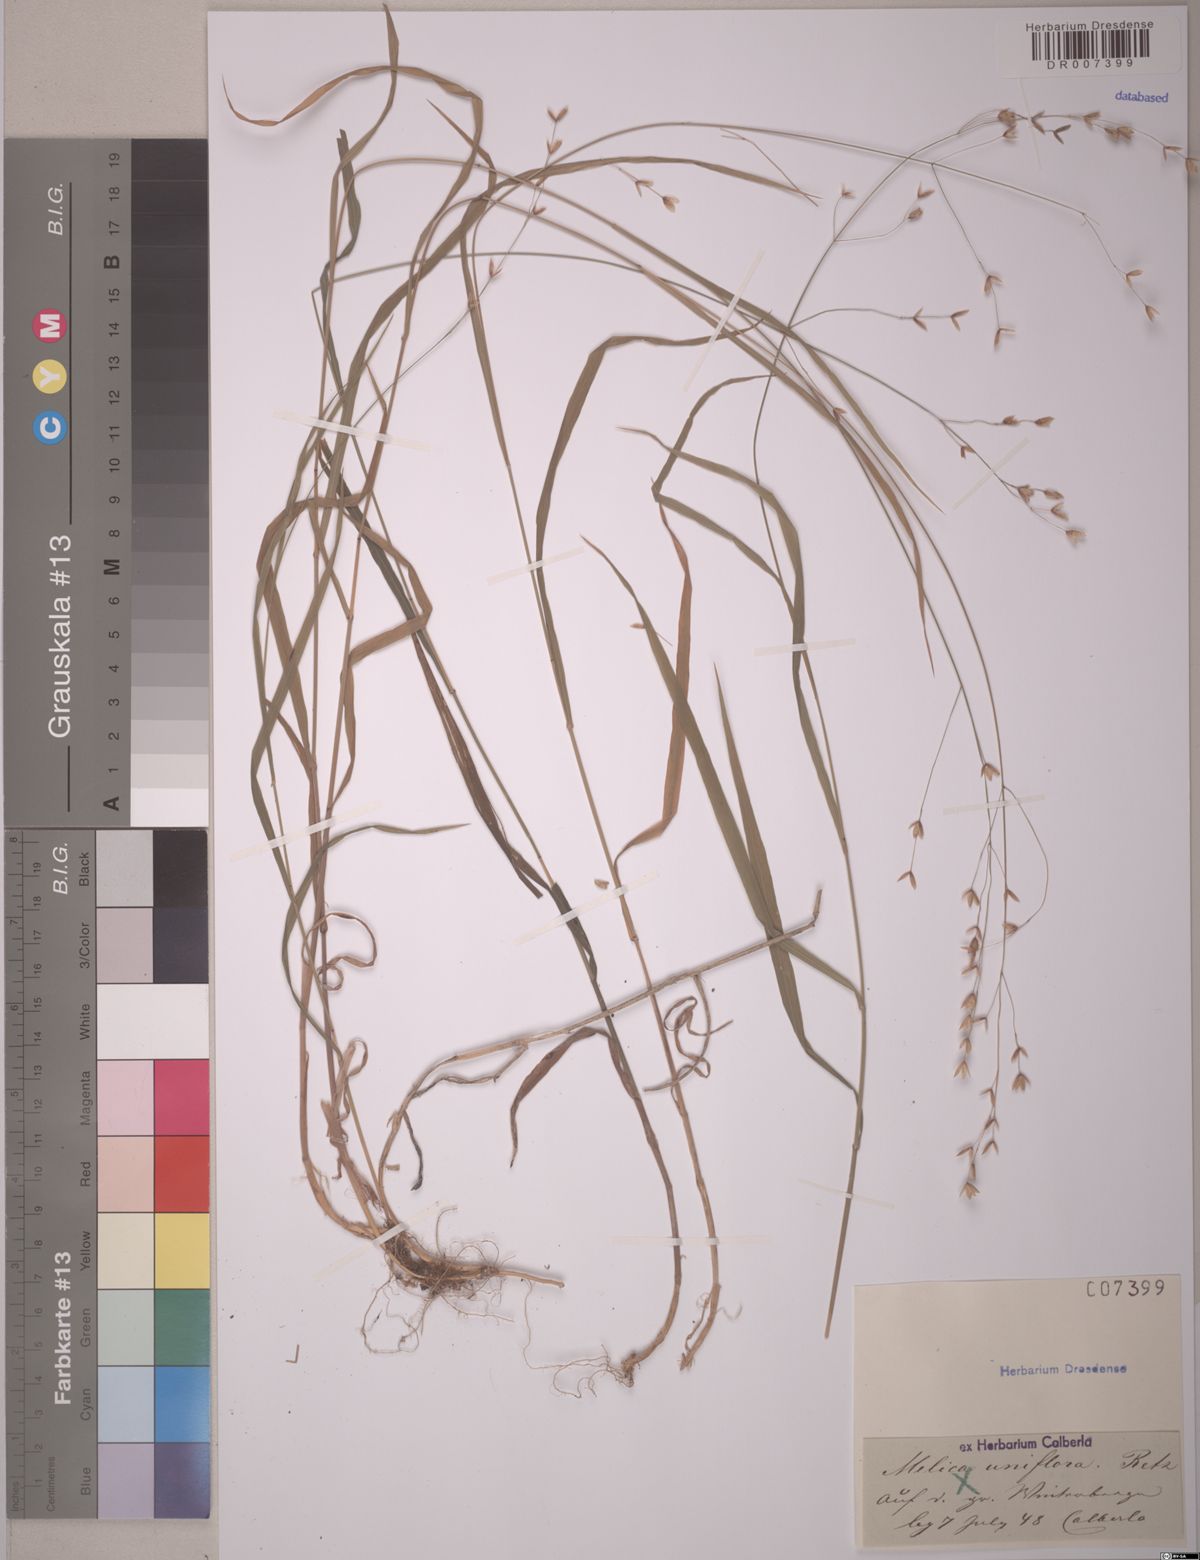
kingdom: Plantae
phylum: Tracheophyta
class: Liliopsida
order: Poales
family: Poaceae
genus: Melica
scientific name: Melica uniflora
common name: Wood melick
